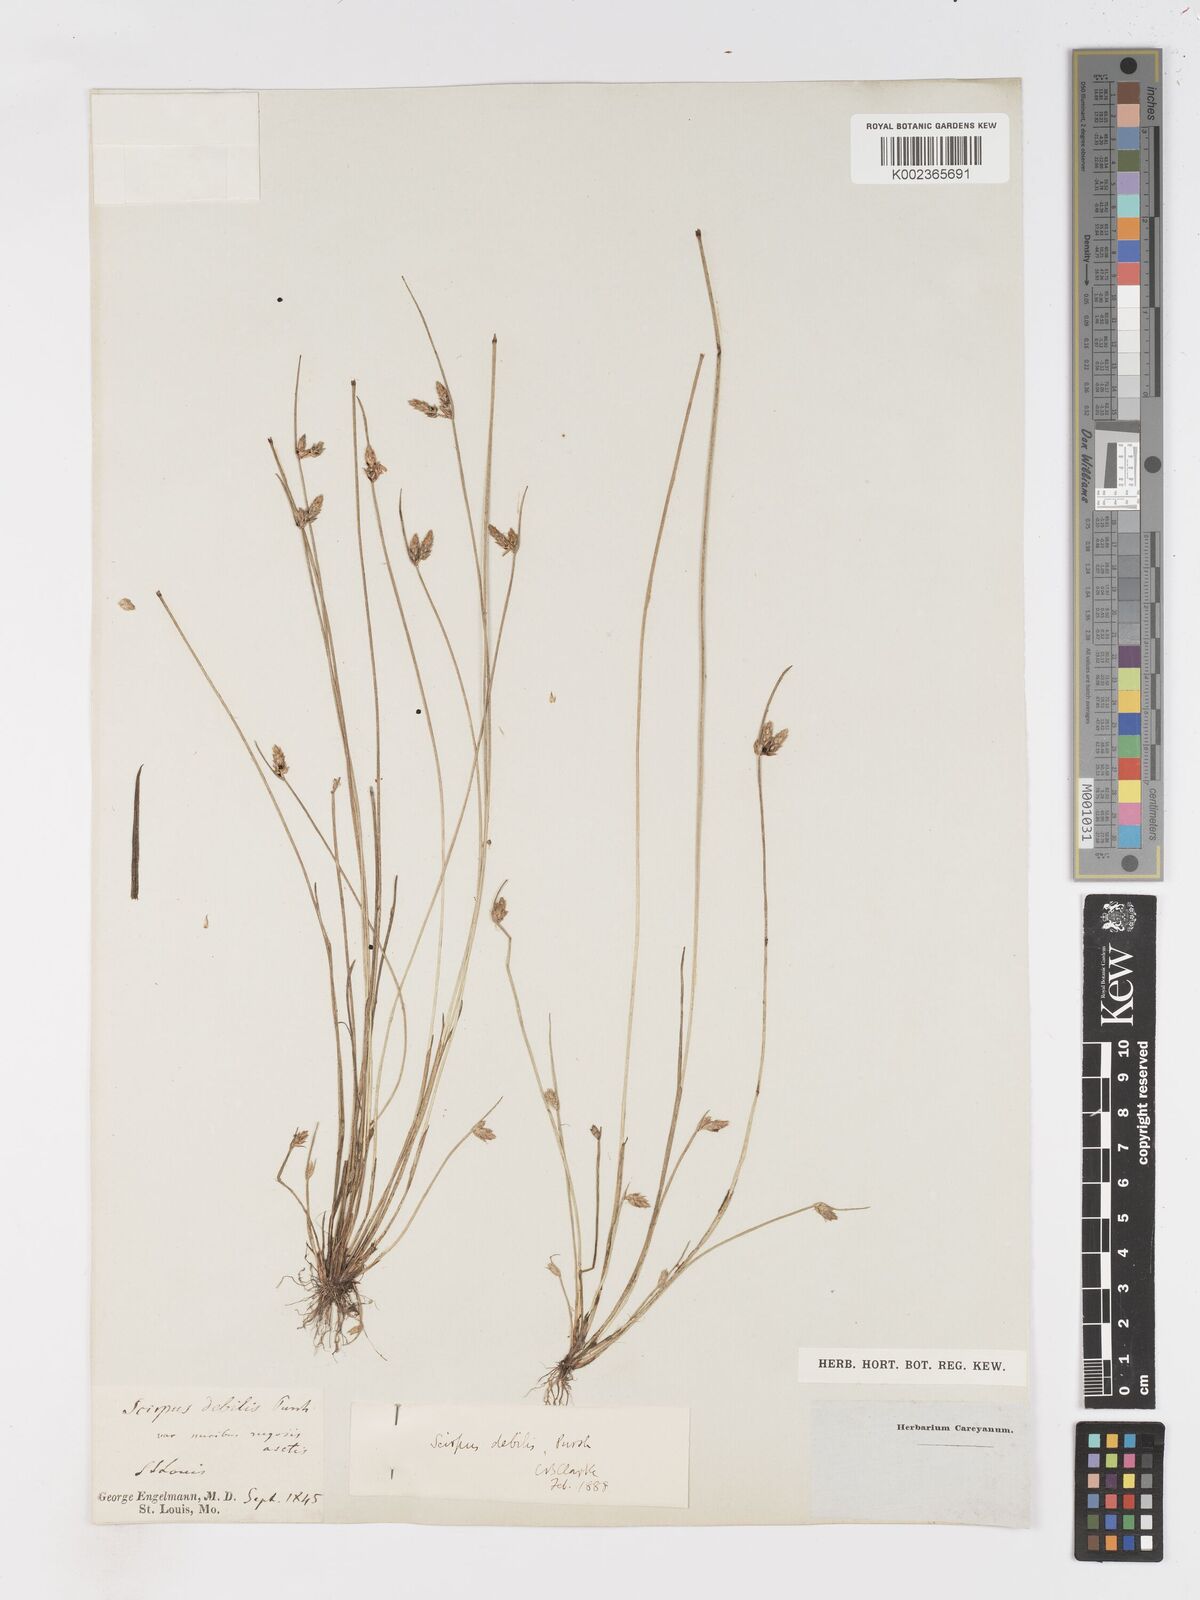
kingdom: Plantae
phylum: Tracheophyta
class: Liliopsida
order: Poales
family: Cyperaceae
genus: Schoenoplectiella
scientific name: Schoenoplectiella purshiana
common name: Weak-stalked bulrush
